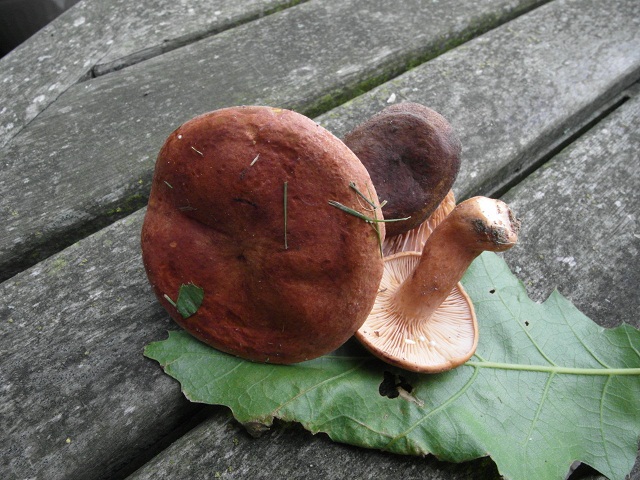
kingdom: Fungi
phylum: Basidiomycota
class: Agaricomycetes
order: Russulales
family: Russulaceae
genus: Lactarius
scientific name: Lactarius fulvissimus
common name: ræve-mælkehat
